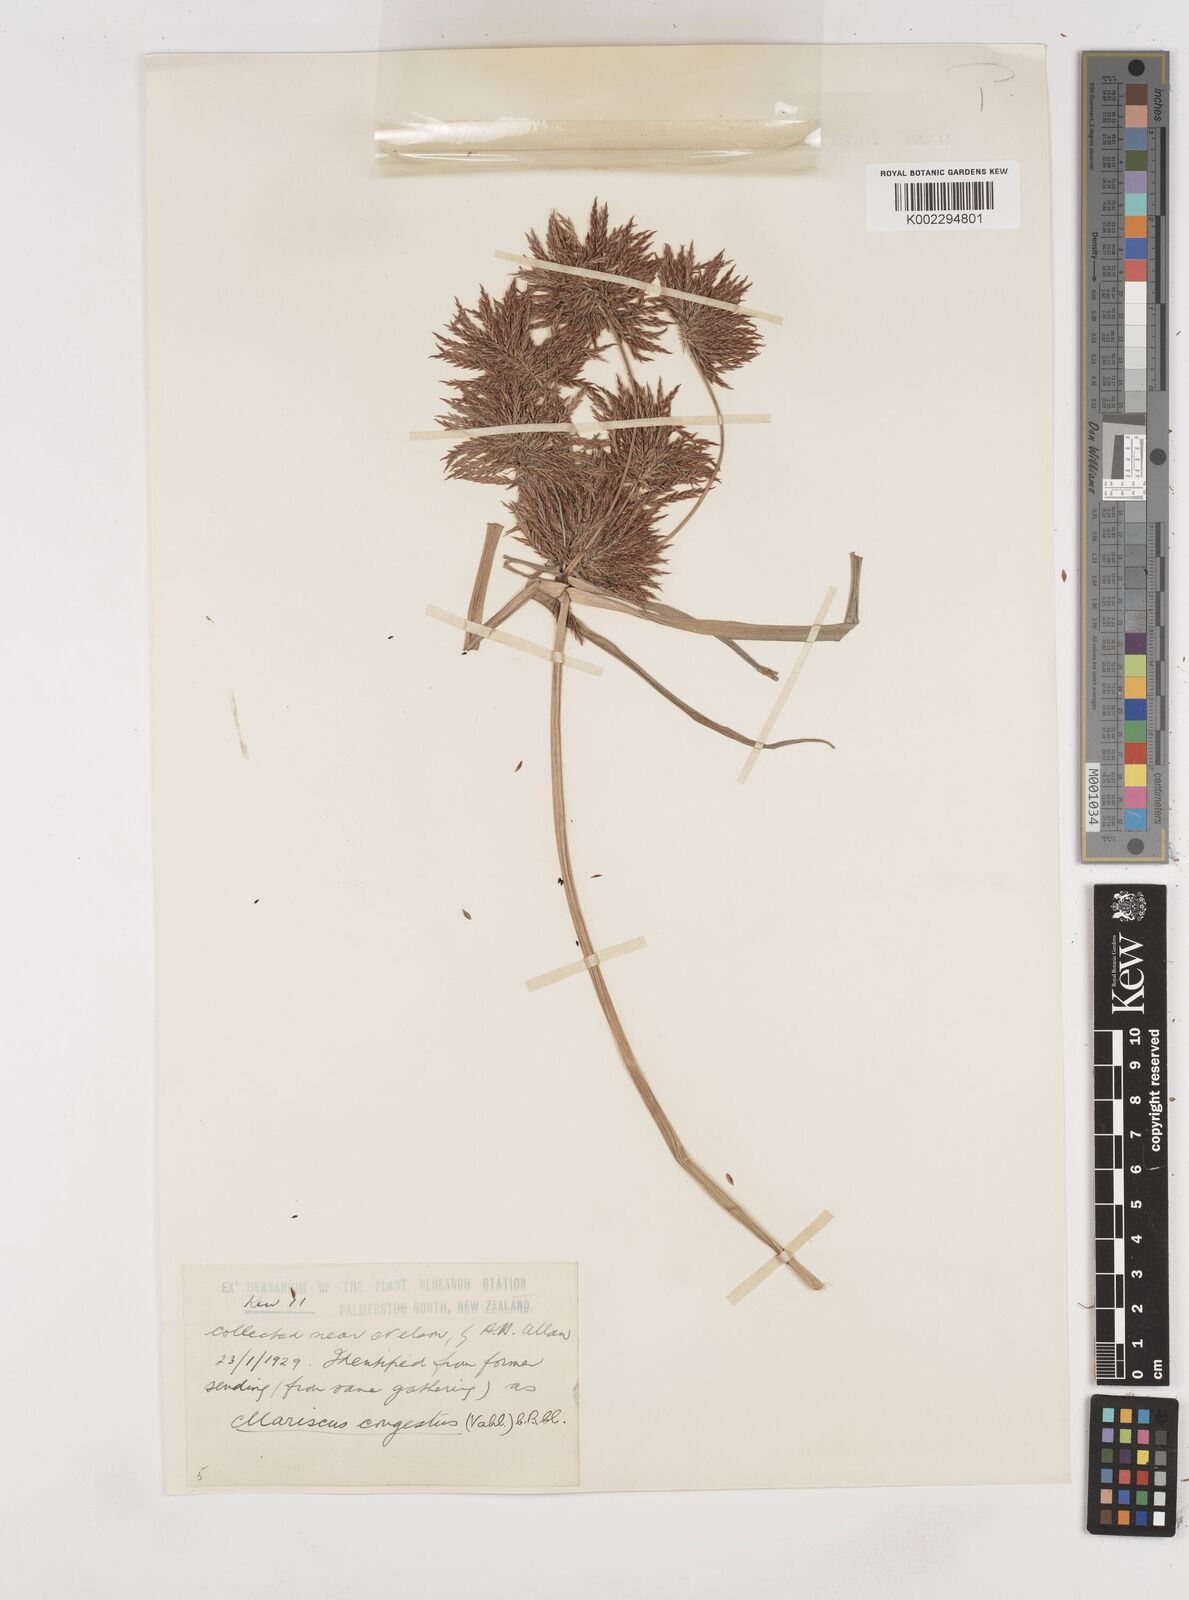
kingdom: Plantae
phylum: Tracheophyta
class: Liliopsida
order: Poales
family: Cyperaceae
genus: Cyperus
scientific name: Cyperus congestus
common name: Dense flat sedge
